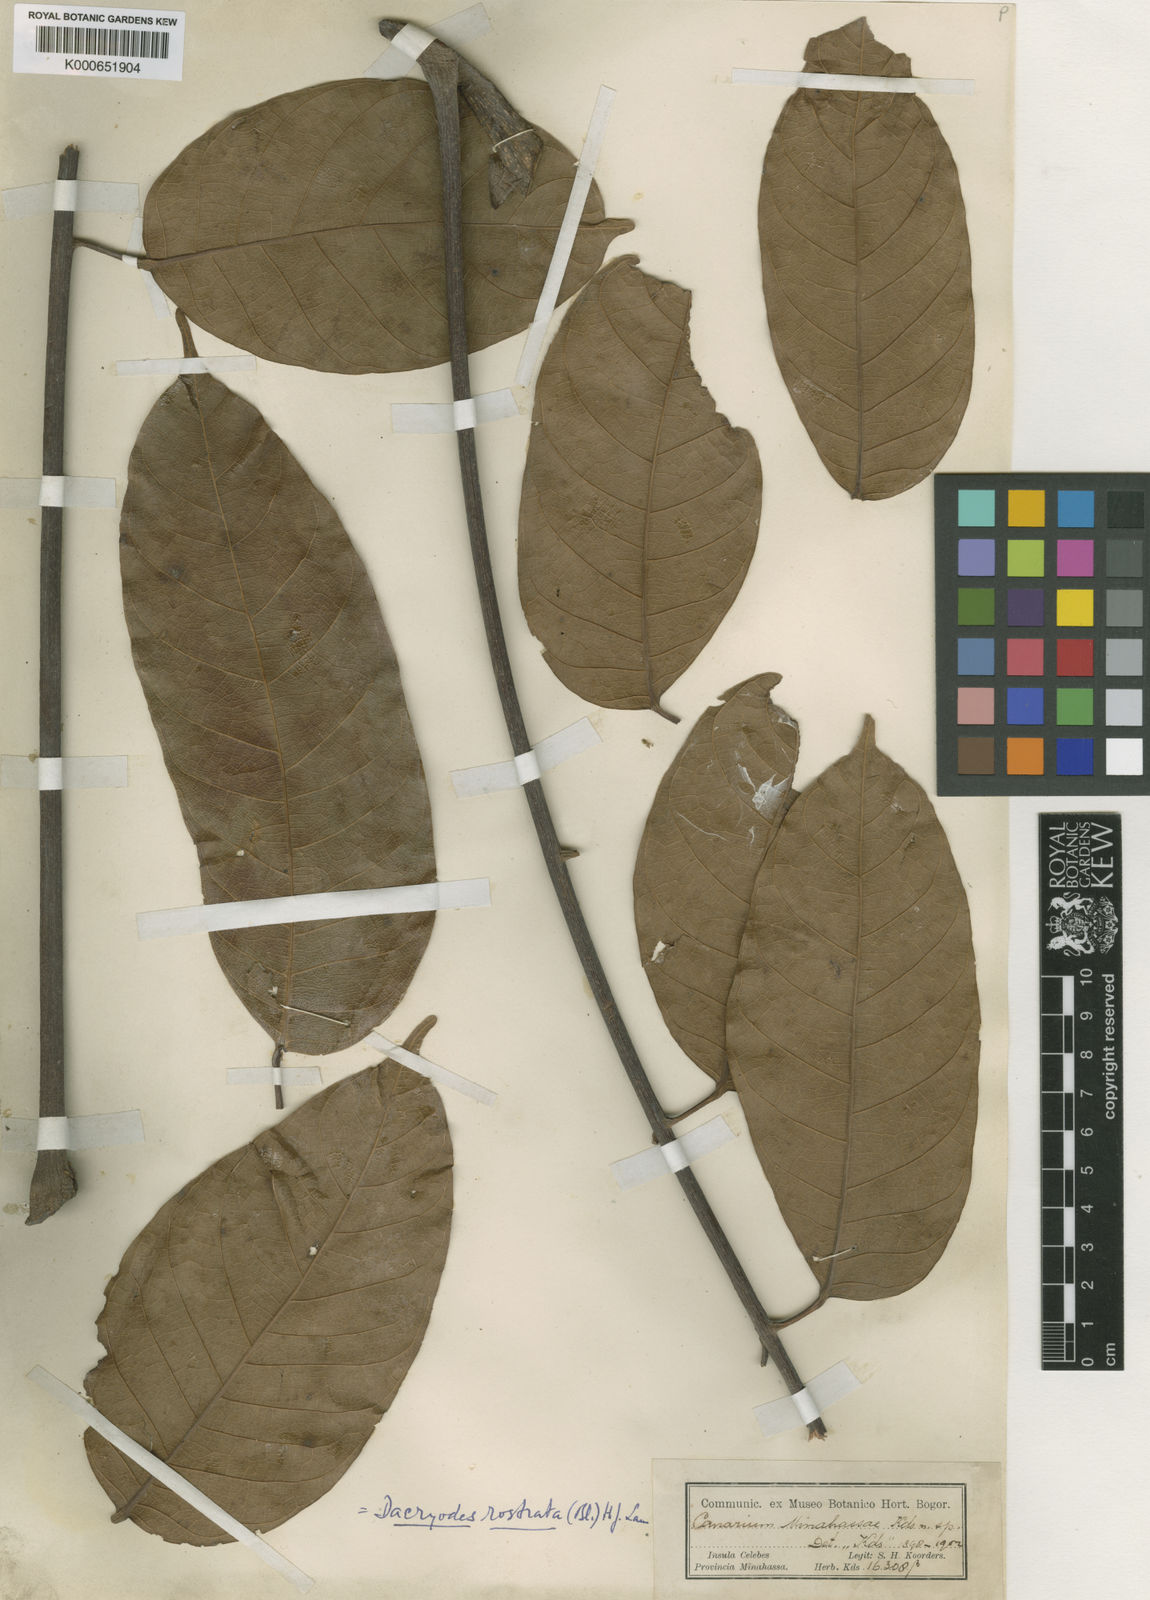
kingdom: Plantae
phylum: Tracheophyta
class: Magnoliopsida
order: Sapindales
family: Burseraceae
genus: Dacryodes
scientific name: Dacryodes rostrata
